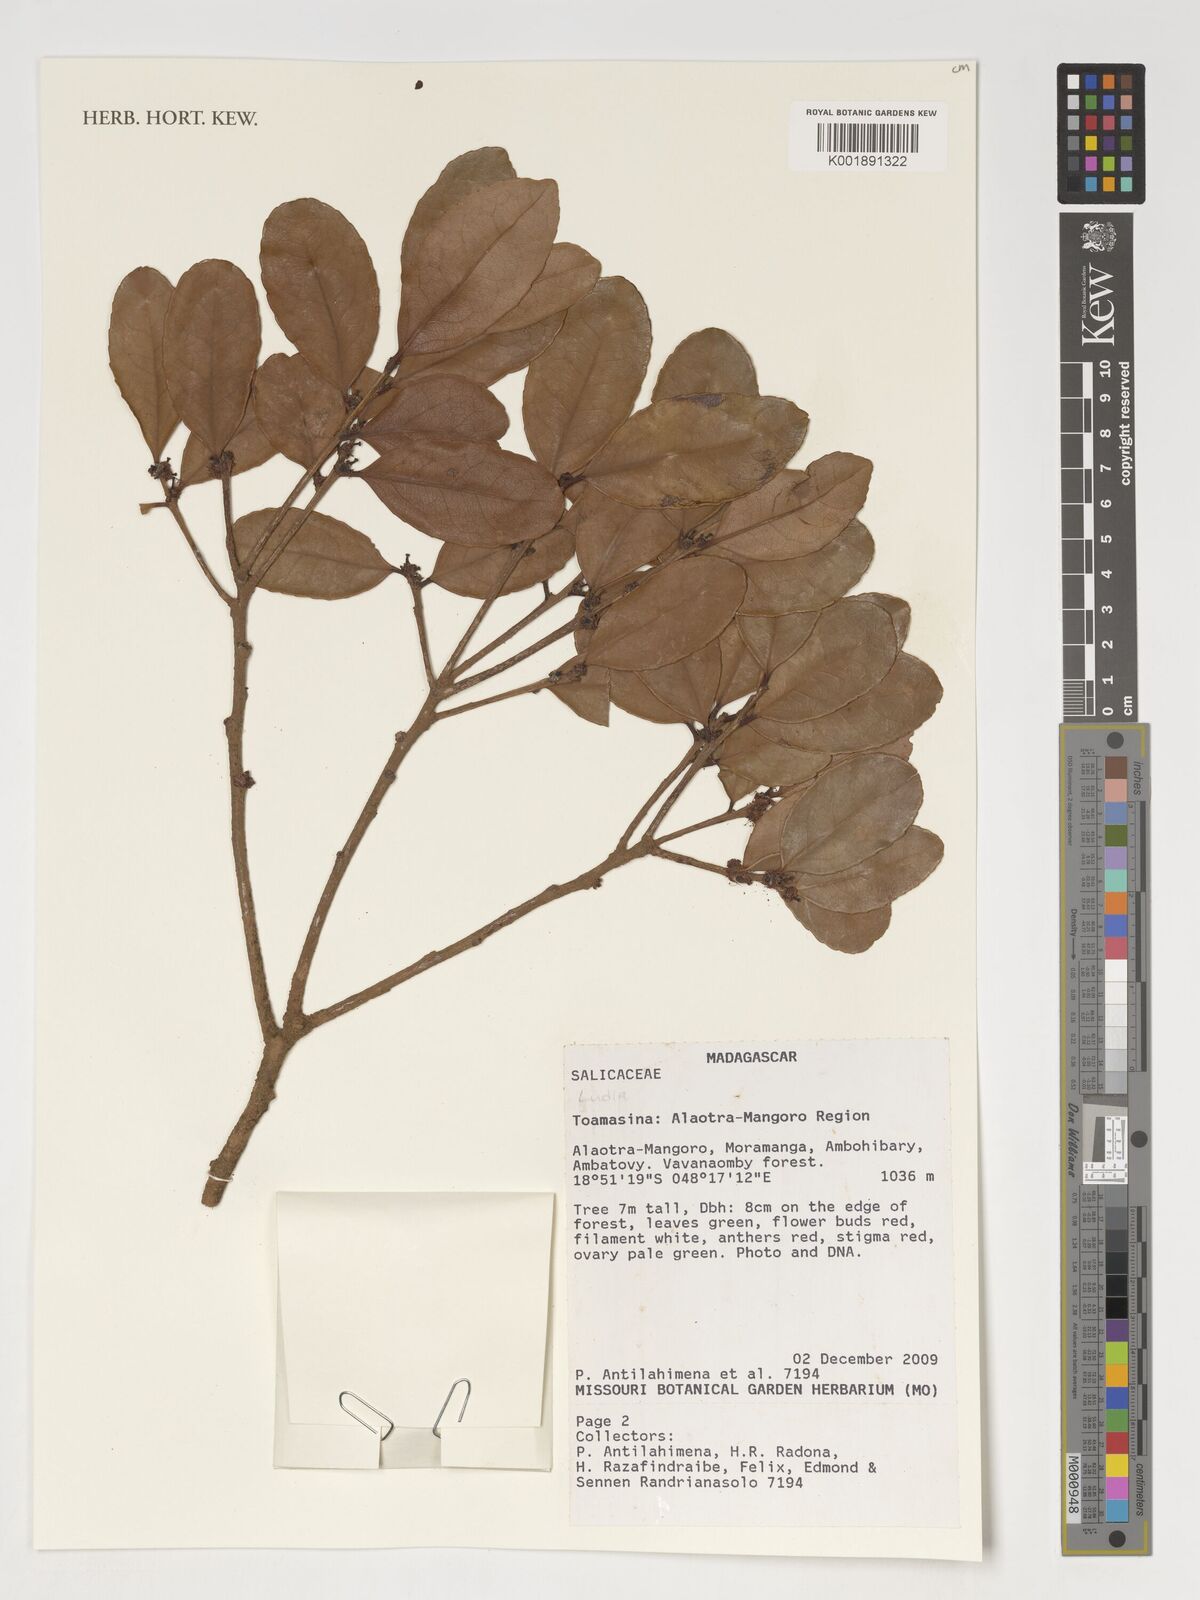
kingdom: Plantae
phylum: Tracheophyta
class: Magnoliopsida
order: Malpighiales
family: Salicaceae
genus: Ludia
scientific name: Ludia
